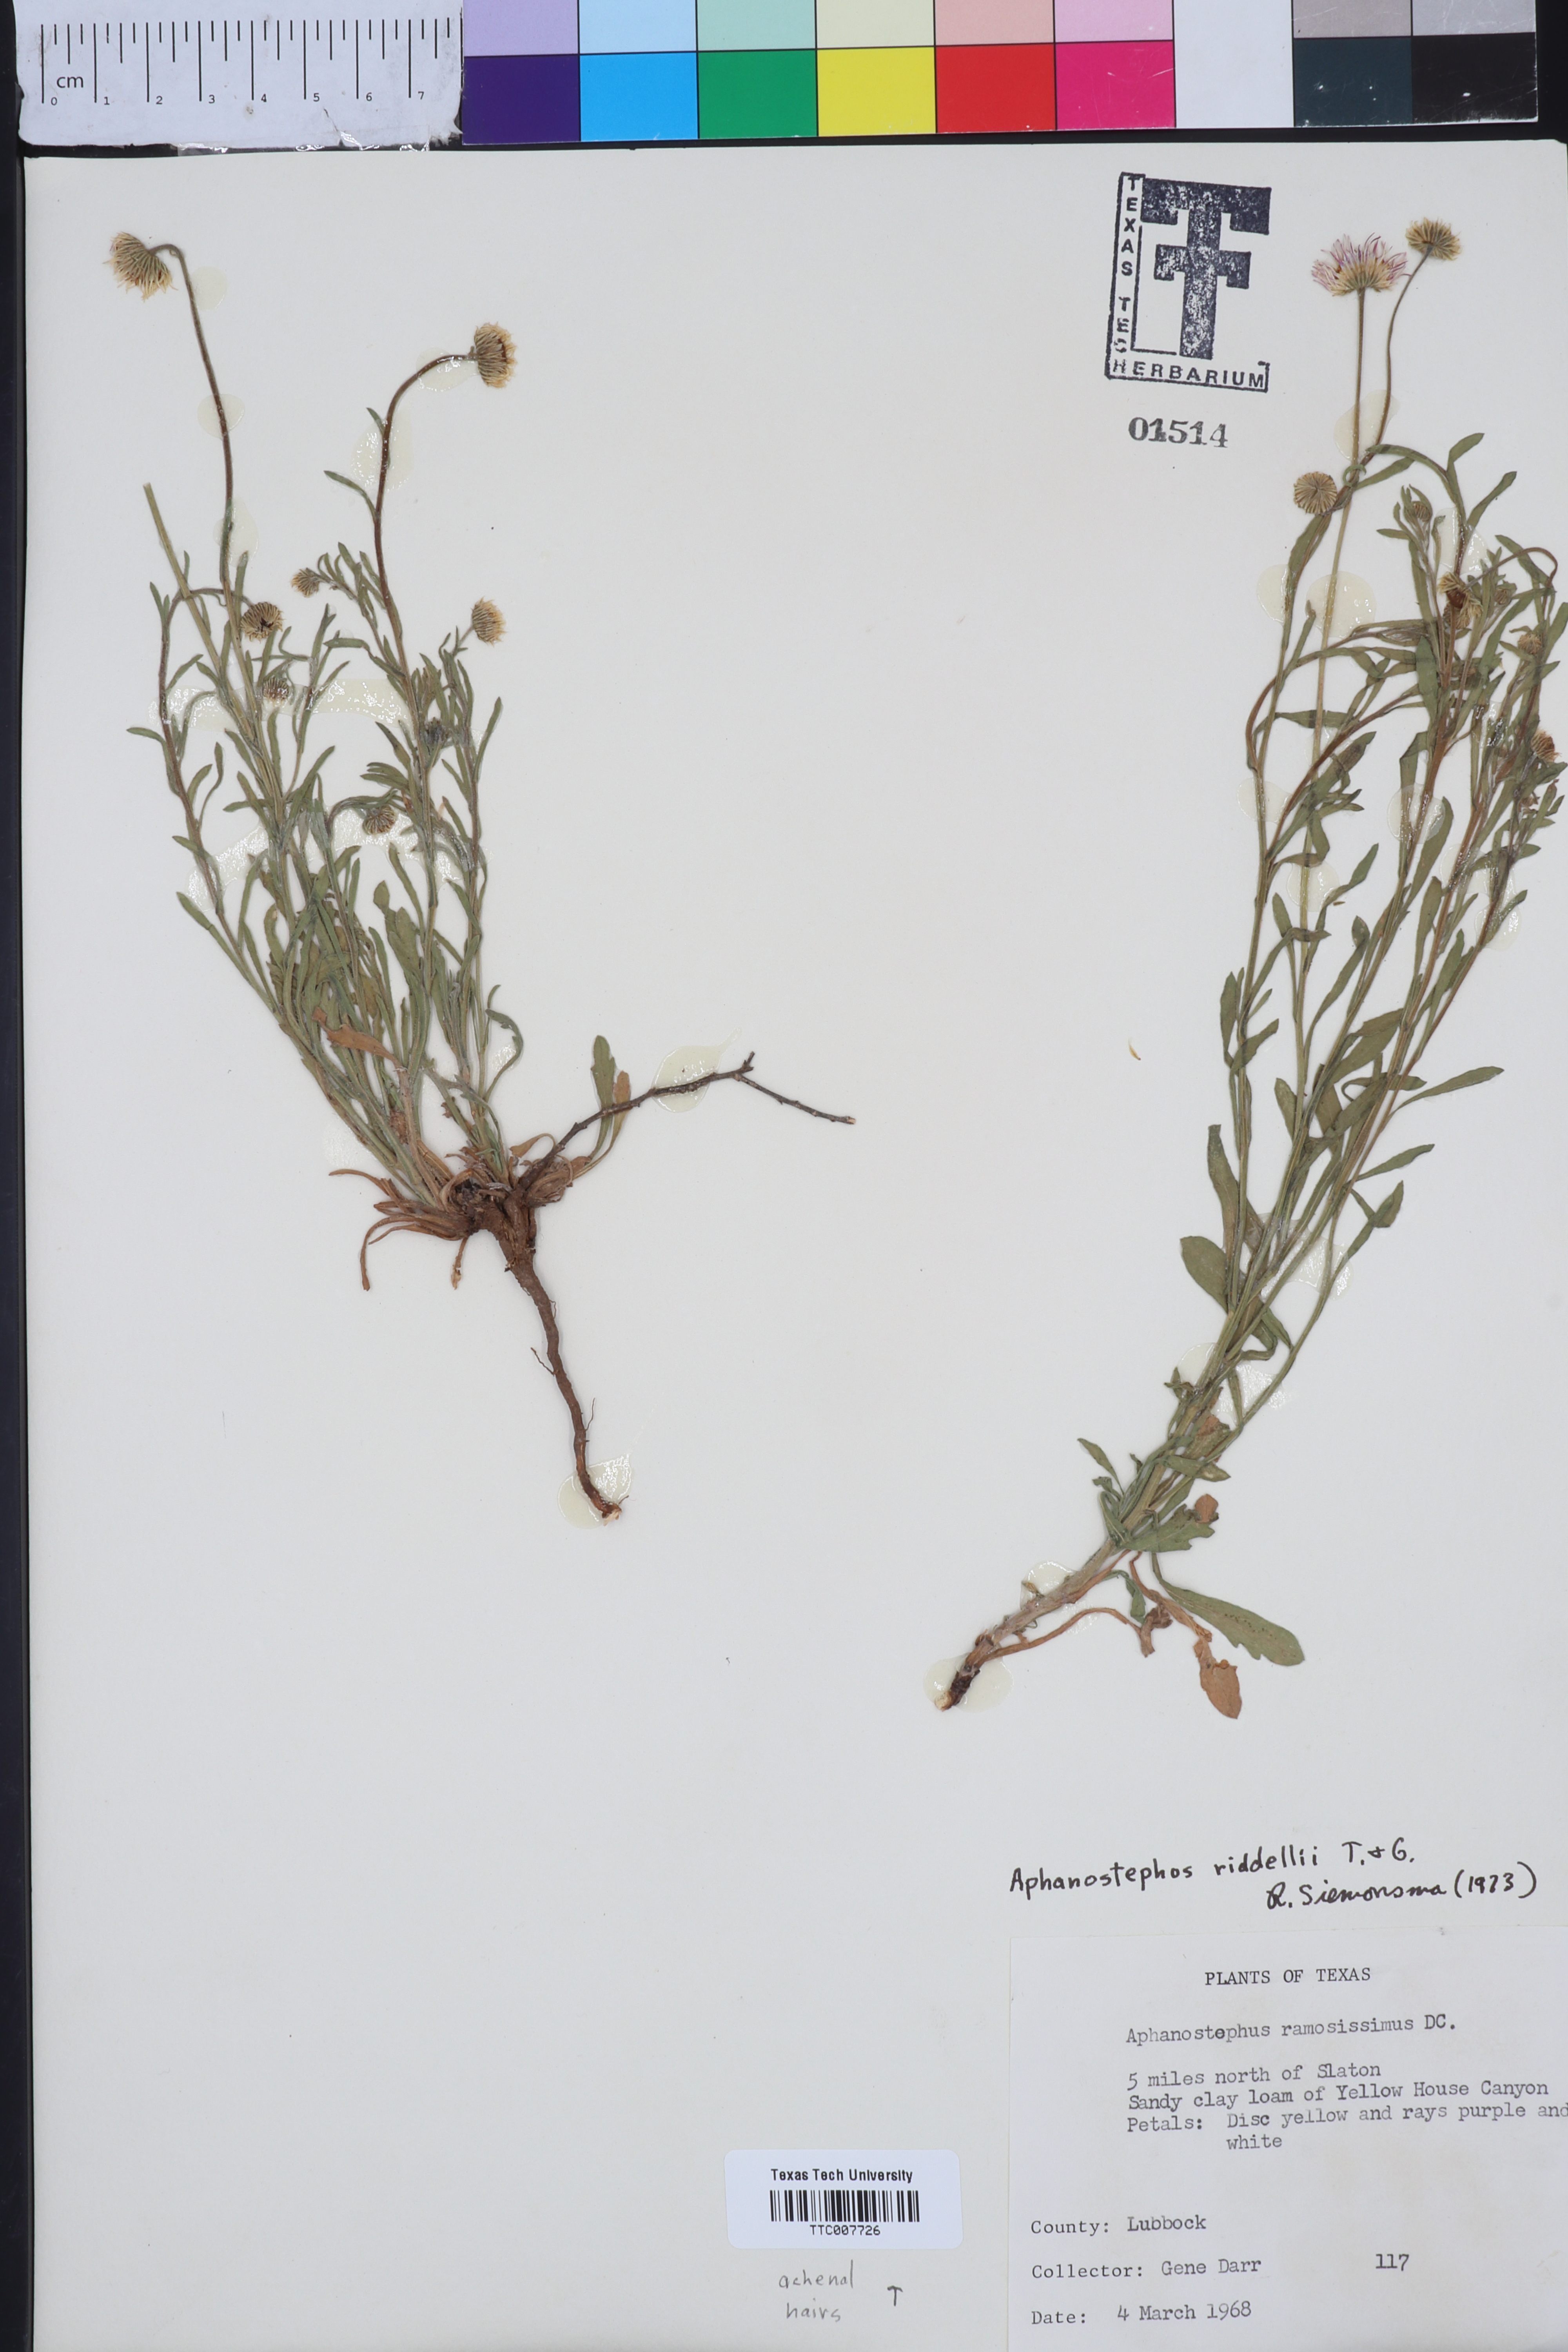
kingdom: Plantae
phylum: Tracheophyta
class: Magnoliopsida
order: Asterales
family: Asteraceae
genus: Aphanostephus
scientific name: Aphanostephus riddellii
